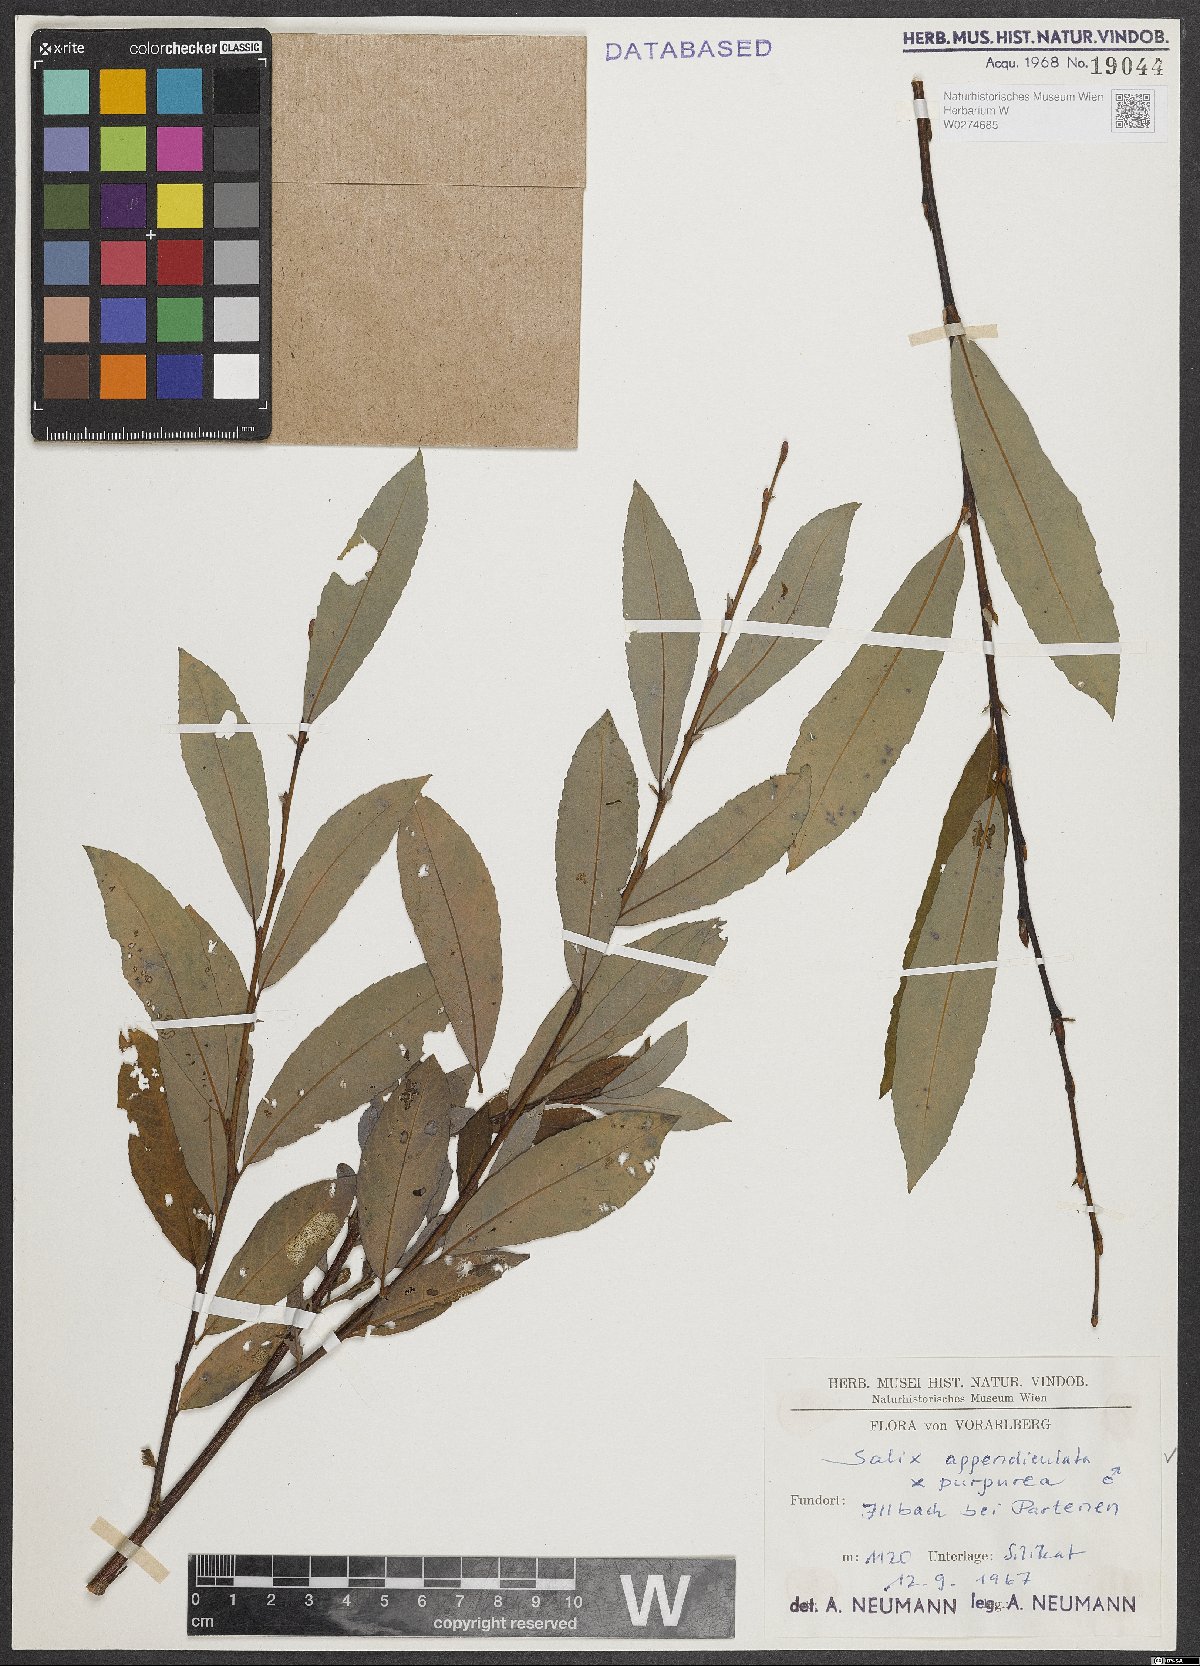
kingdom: Plantae
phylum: Tracheophyta
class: Magnoliopsida
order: Malpighiales
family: Salicaceae
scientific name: Salicaceae
